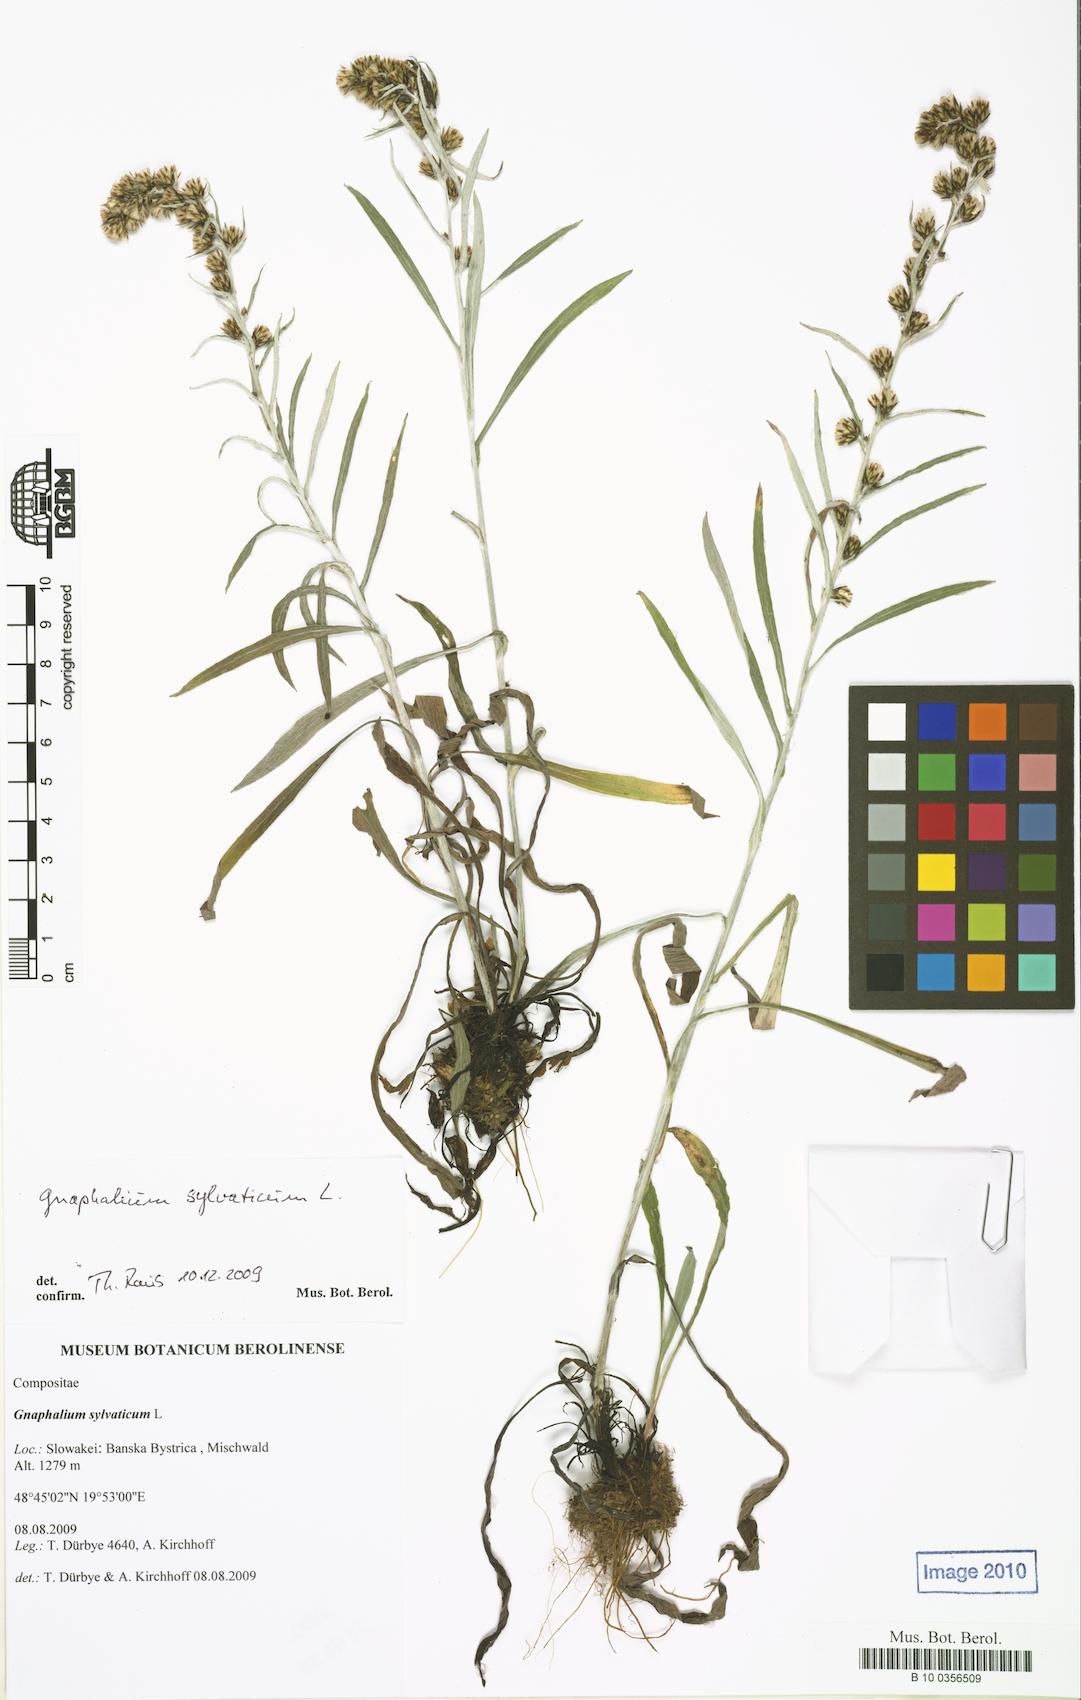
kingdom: Plantae
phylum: Tracheophyta
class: Magnoliopsida
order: Asterales
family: Asteraceae
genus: Omalotheca
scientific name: Omalotheca sylvatica
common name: Heath cudweed
